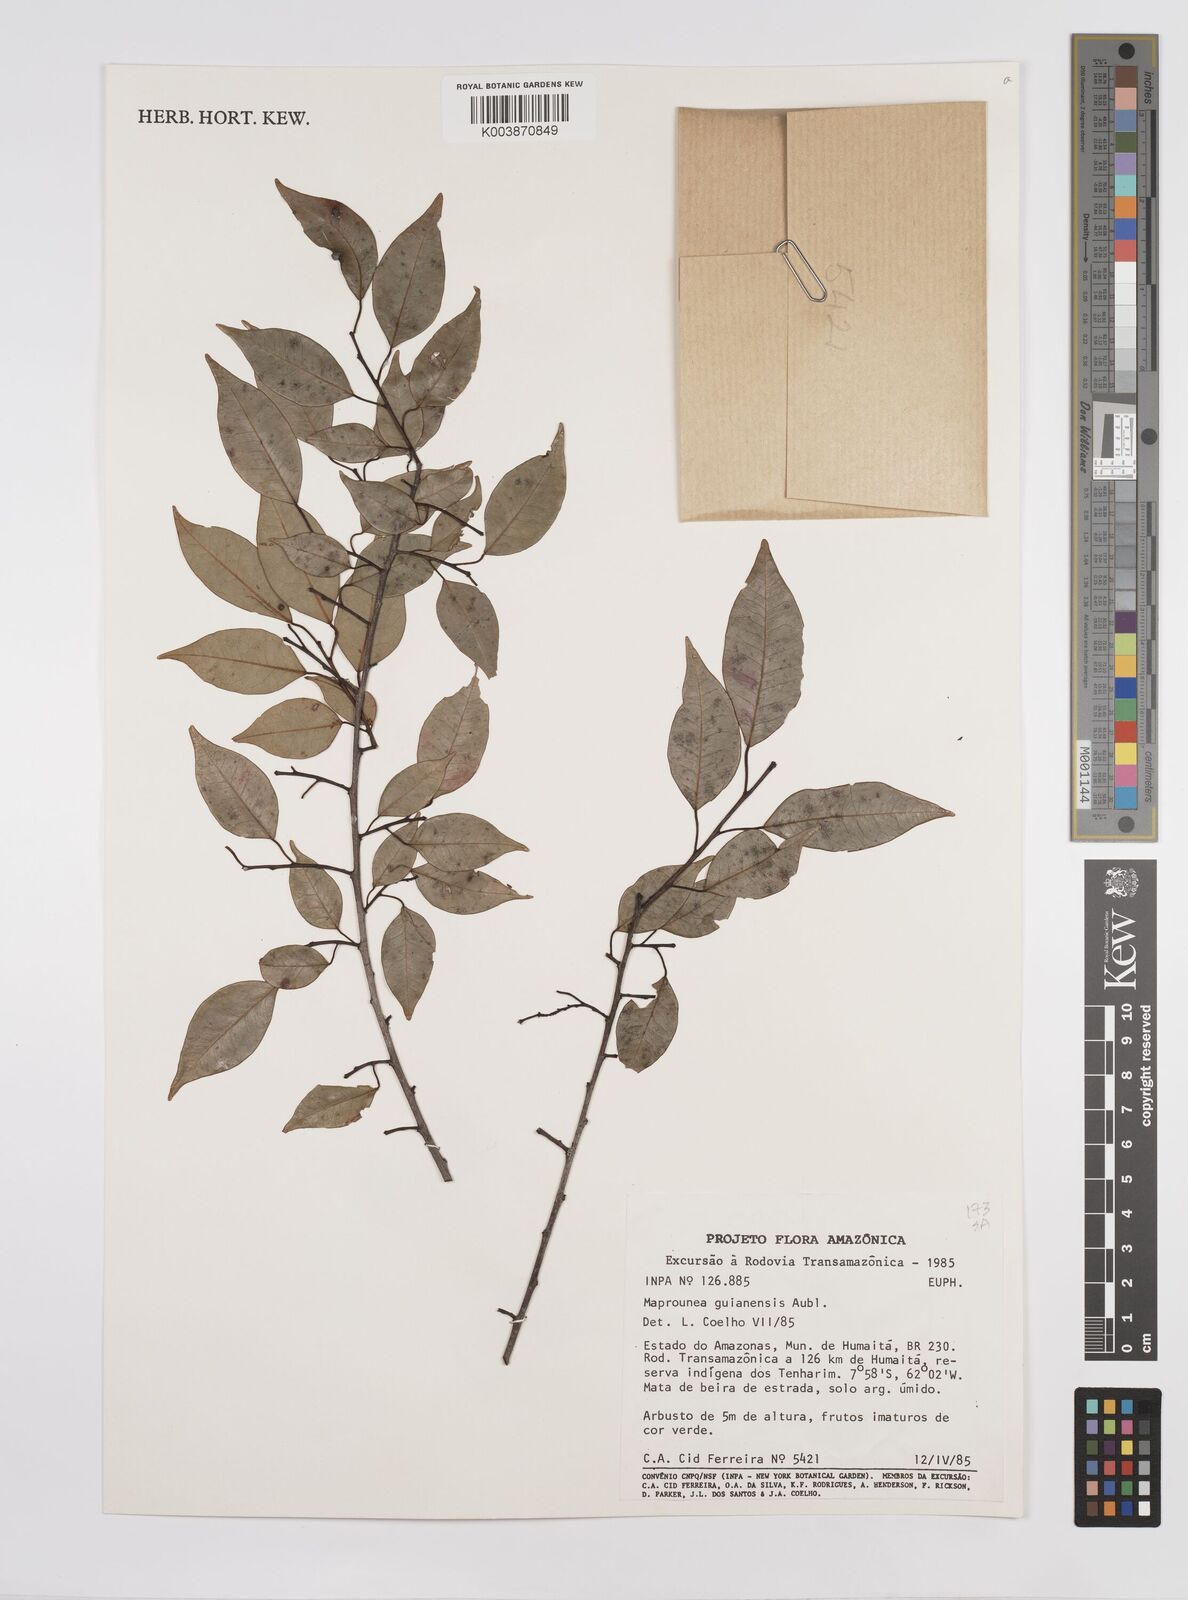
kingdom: Plantae
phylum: Tracheophyta
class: Magnoliopsida
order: Malpighiales
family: Euphorbiaceae
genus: Maprounea
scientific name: Maprounea guianensis
